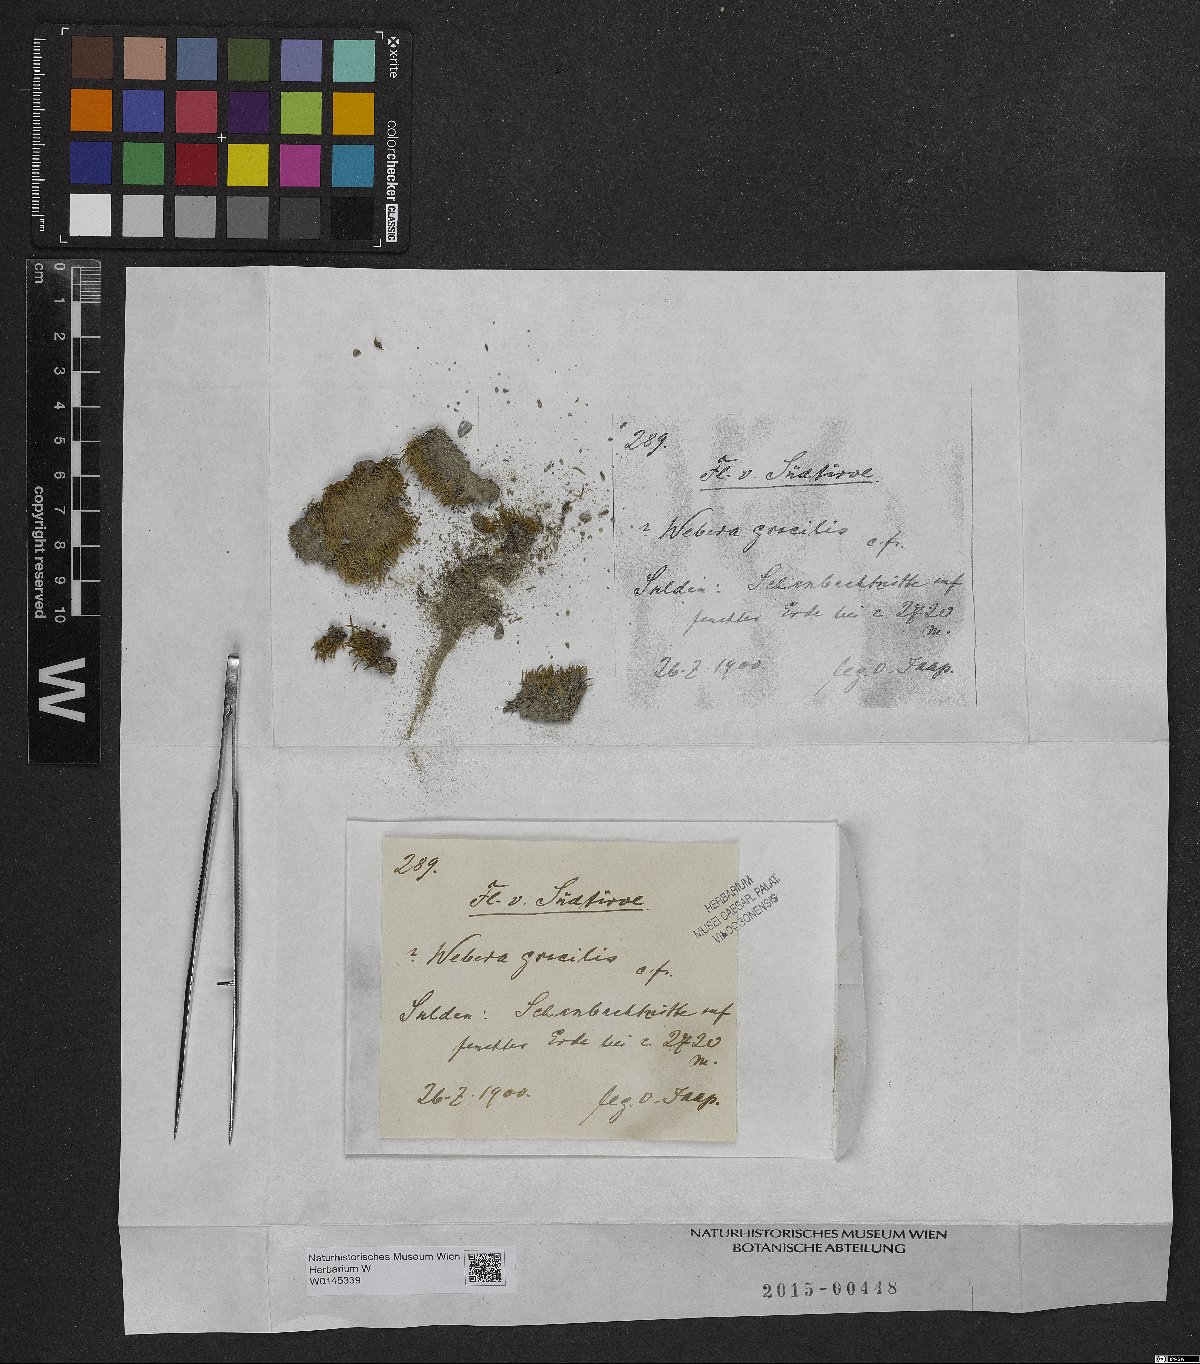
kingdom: Plantae
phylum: Tracheophyta
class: Magnoliopsida
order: Gentianales
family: Rubiaceae
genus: Tarenna
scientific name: Tarenna gracilis
